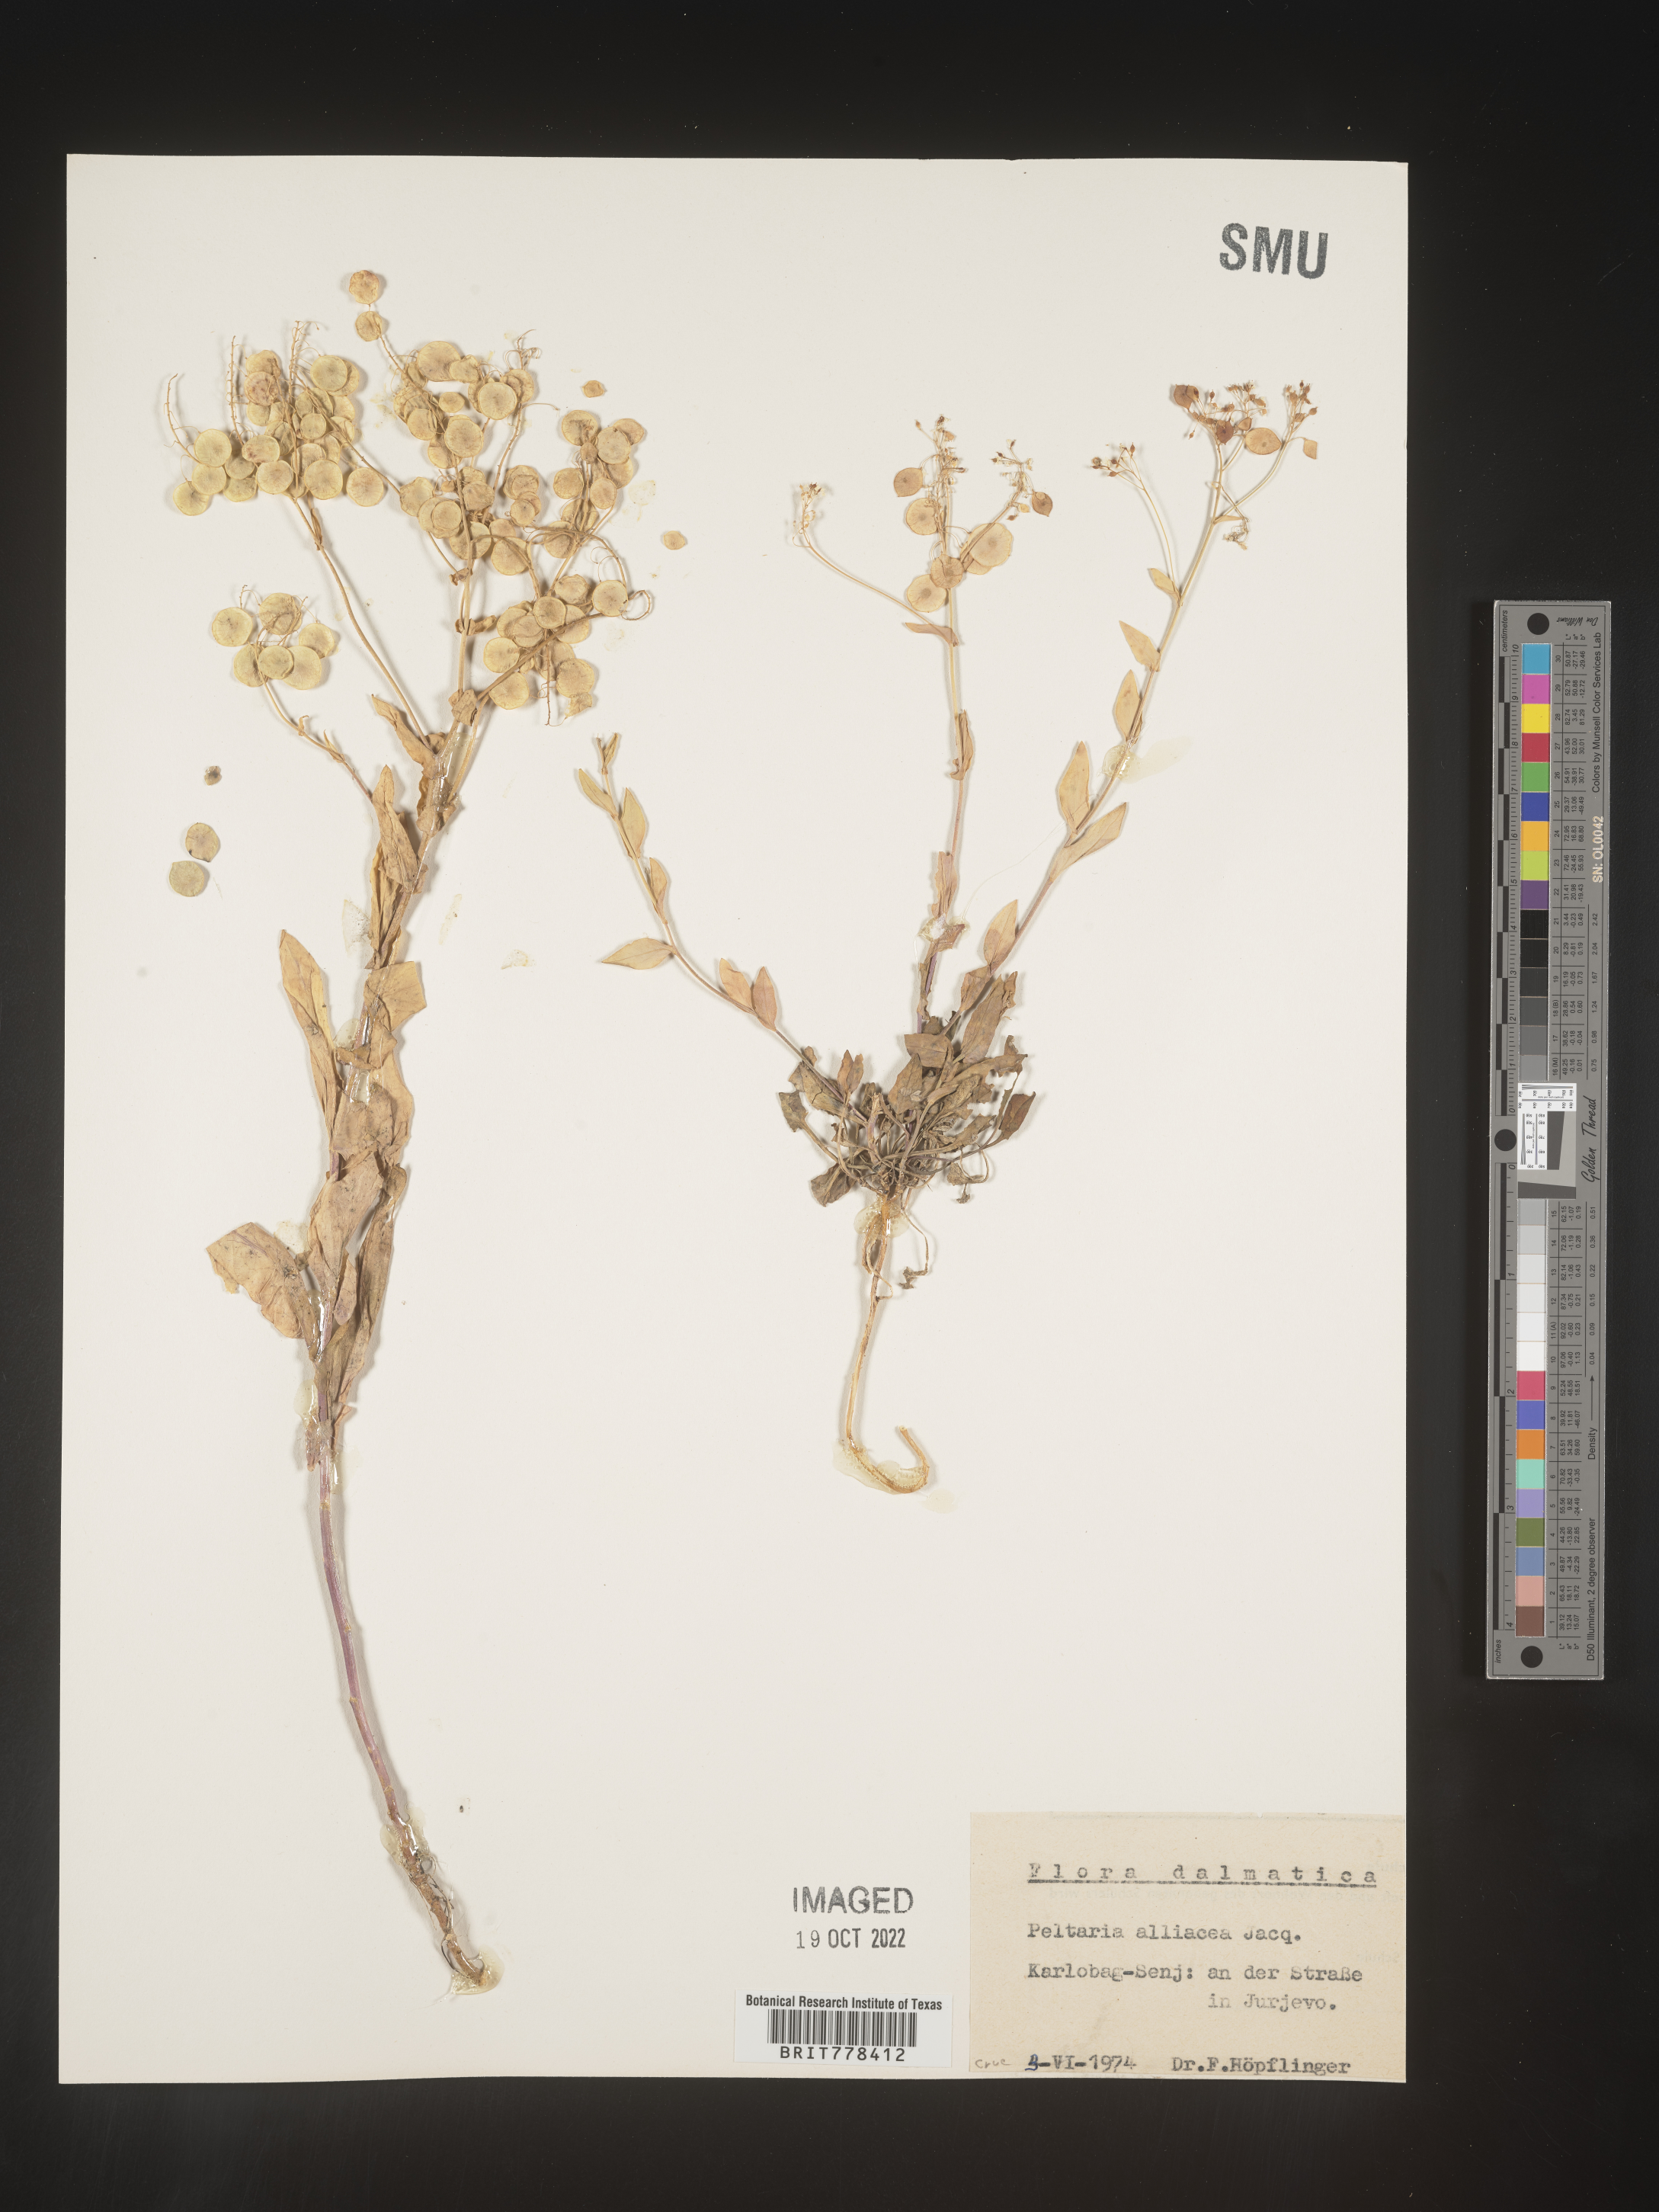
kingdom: Plantae
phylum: Tracheophyta
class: Magnoliopsida
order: Brassicales
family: Brassicaceae
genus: Peltaria
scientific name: Peltaria
